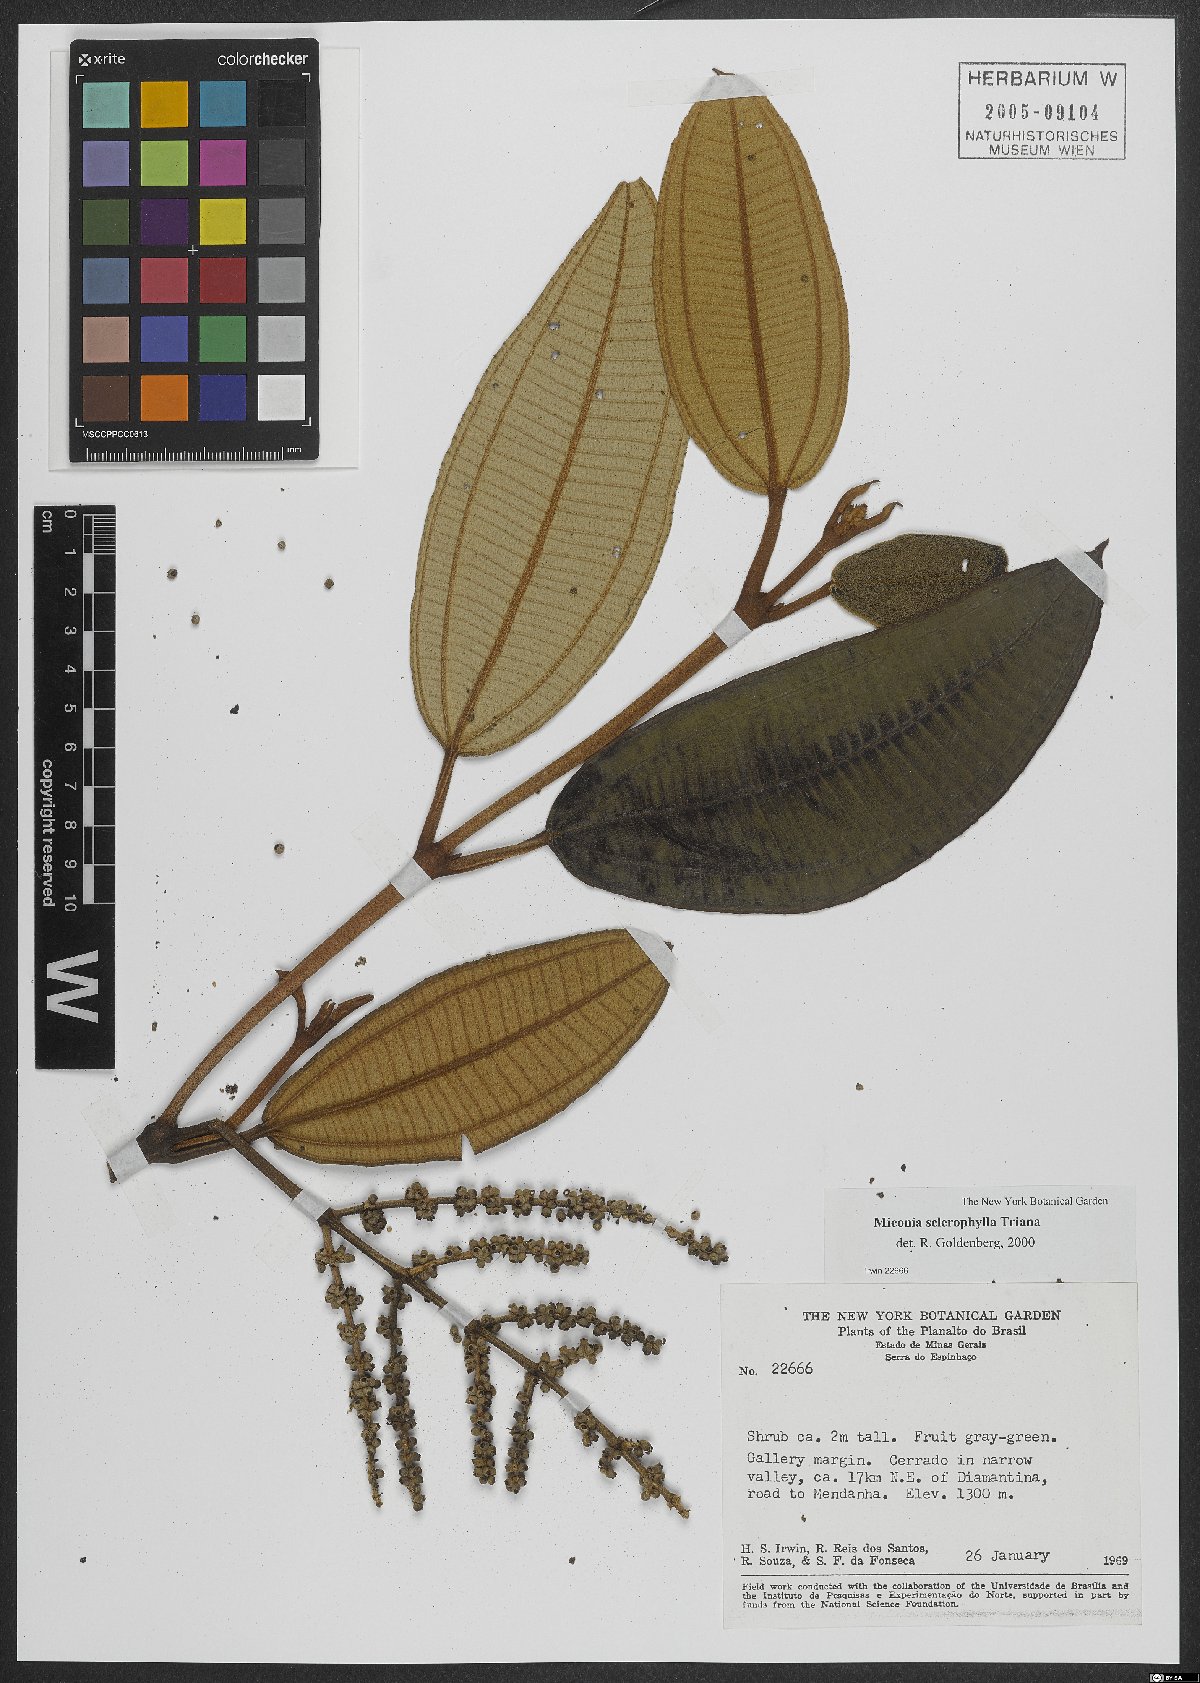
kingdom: Plantae
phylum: Tracheophyta
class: Magnoliopsida
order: Myrtales
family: Melastomataceae
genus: Miconia
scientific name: Miconia sclerophylla
